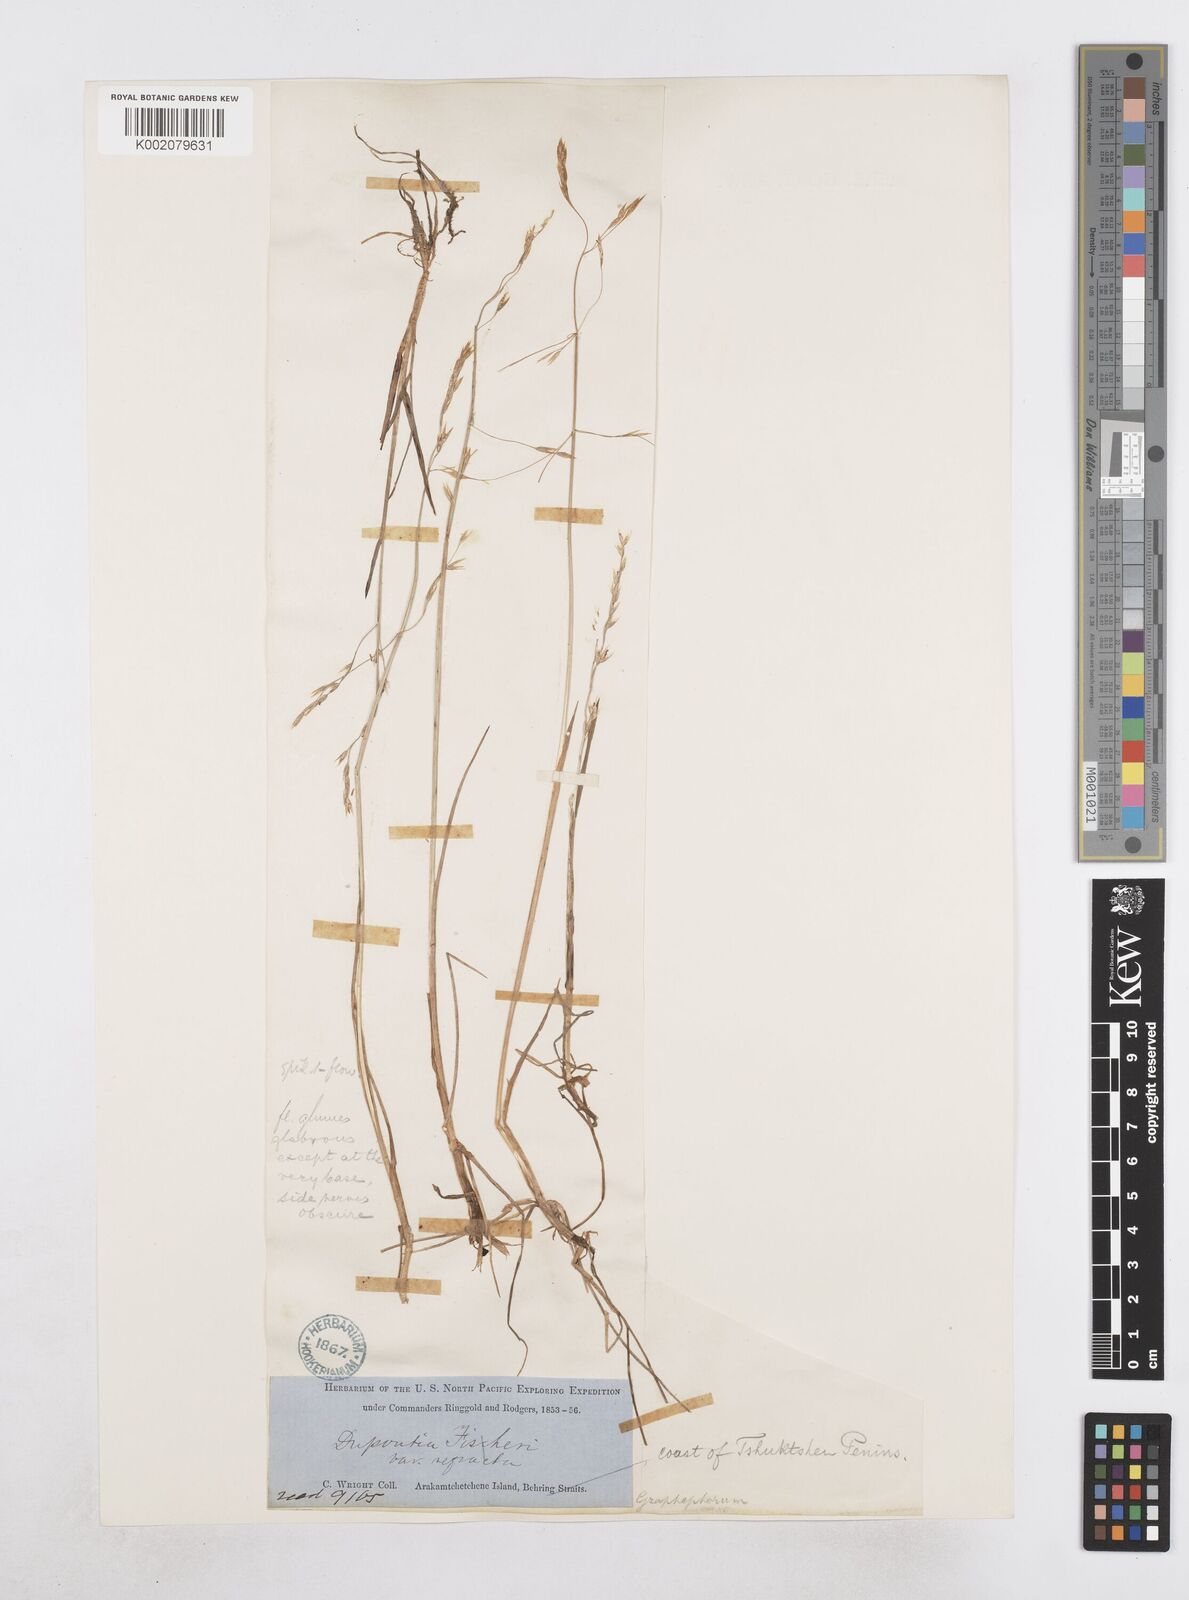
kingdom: Plantae
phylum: Tracheophyta
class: Liliopsida
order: Poales
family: Poaceae
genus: Dupontia
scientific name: Dupontia fisheri
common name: Tundra grass
